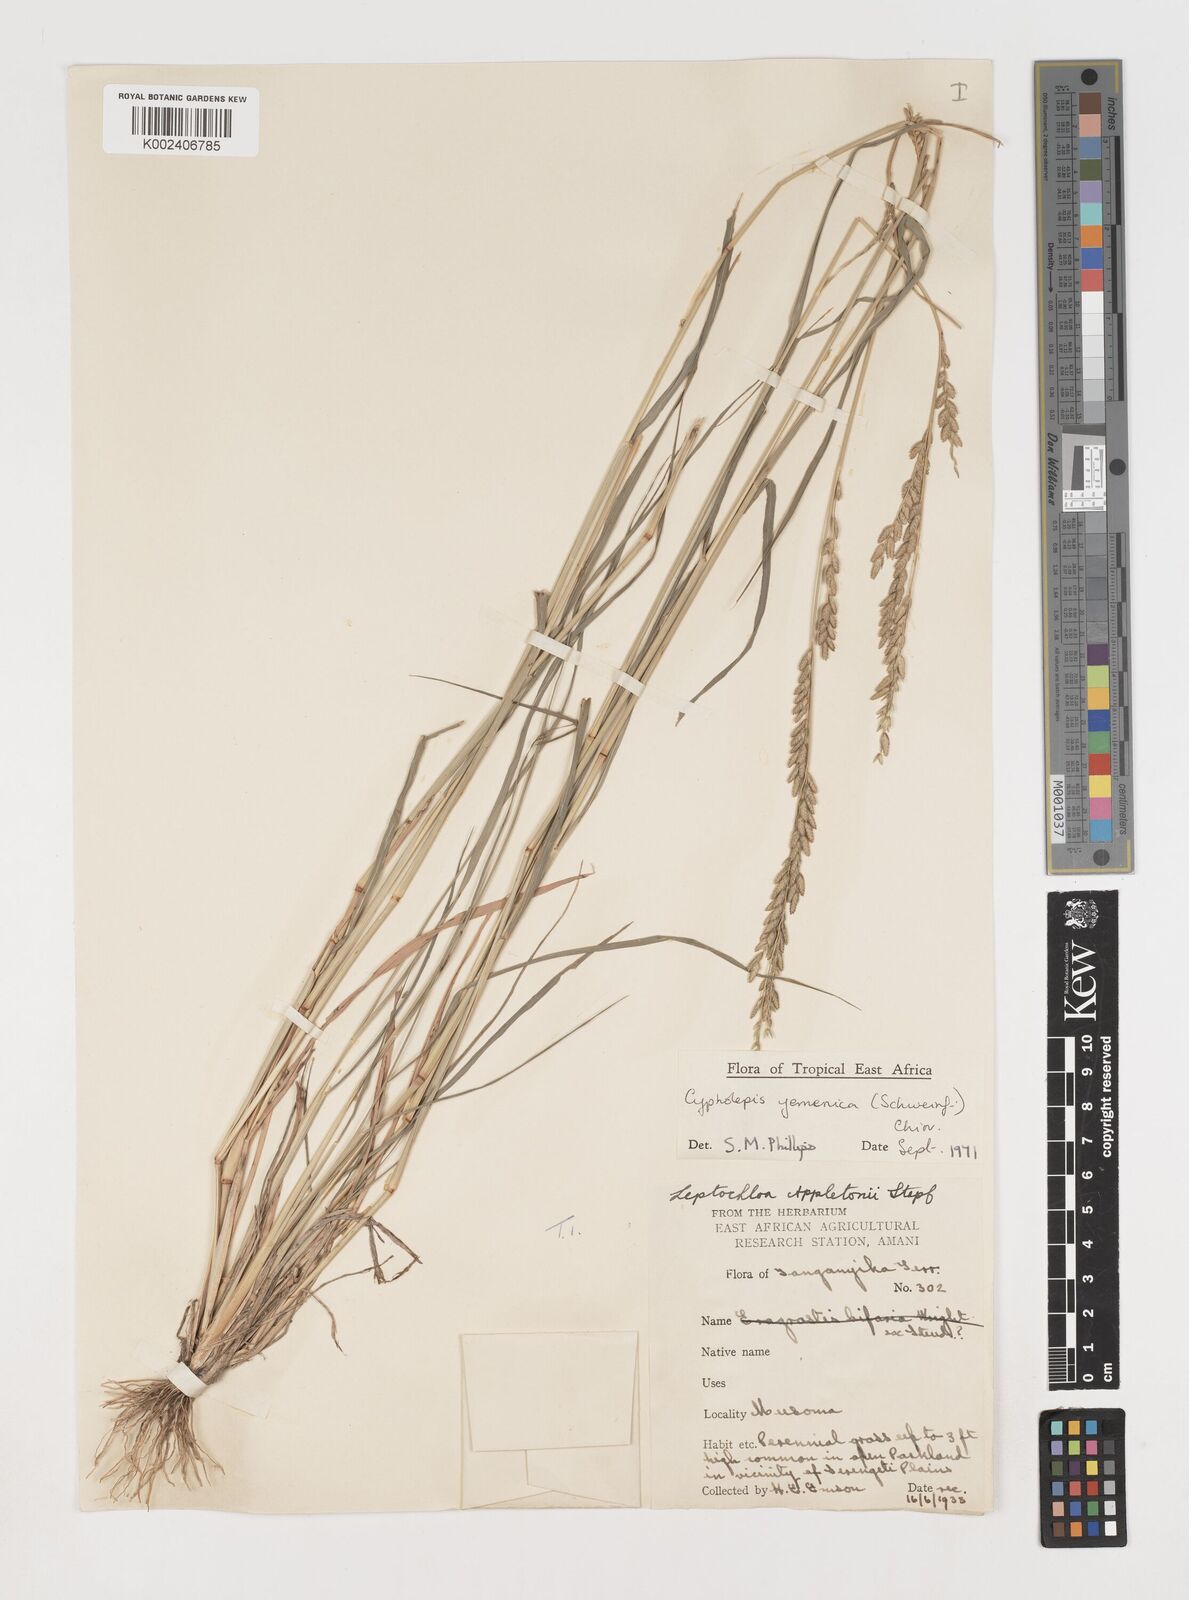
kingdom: Plantae
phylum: Tracheophyta
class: Liliopsida
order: Poales
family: Poaceae
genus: Disakisperma
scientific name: Disakisperma yemenicum
